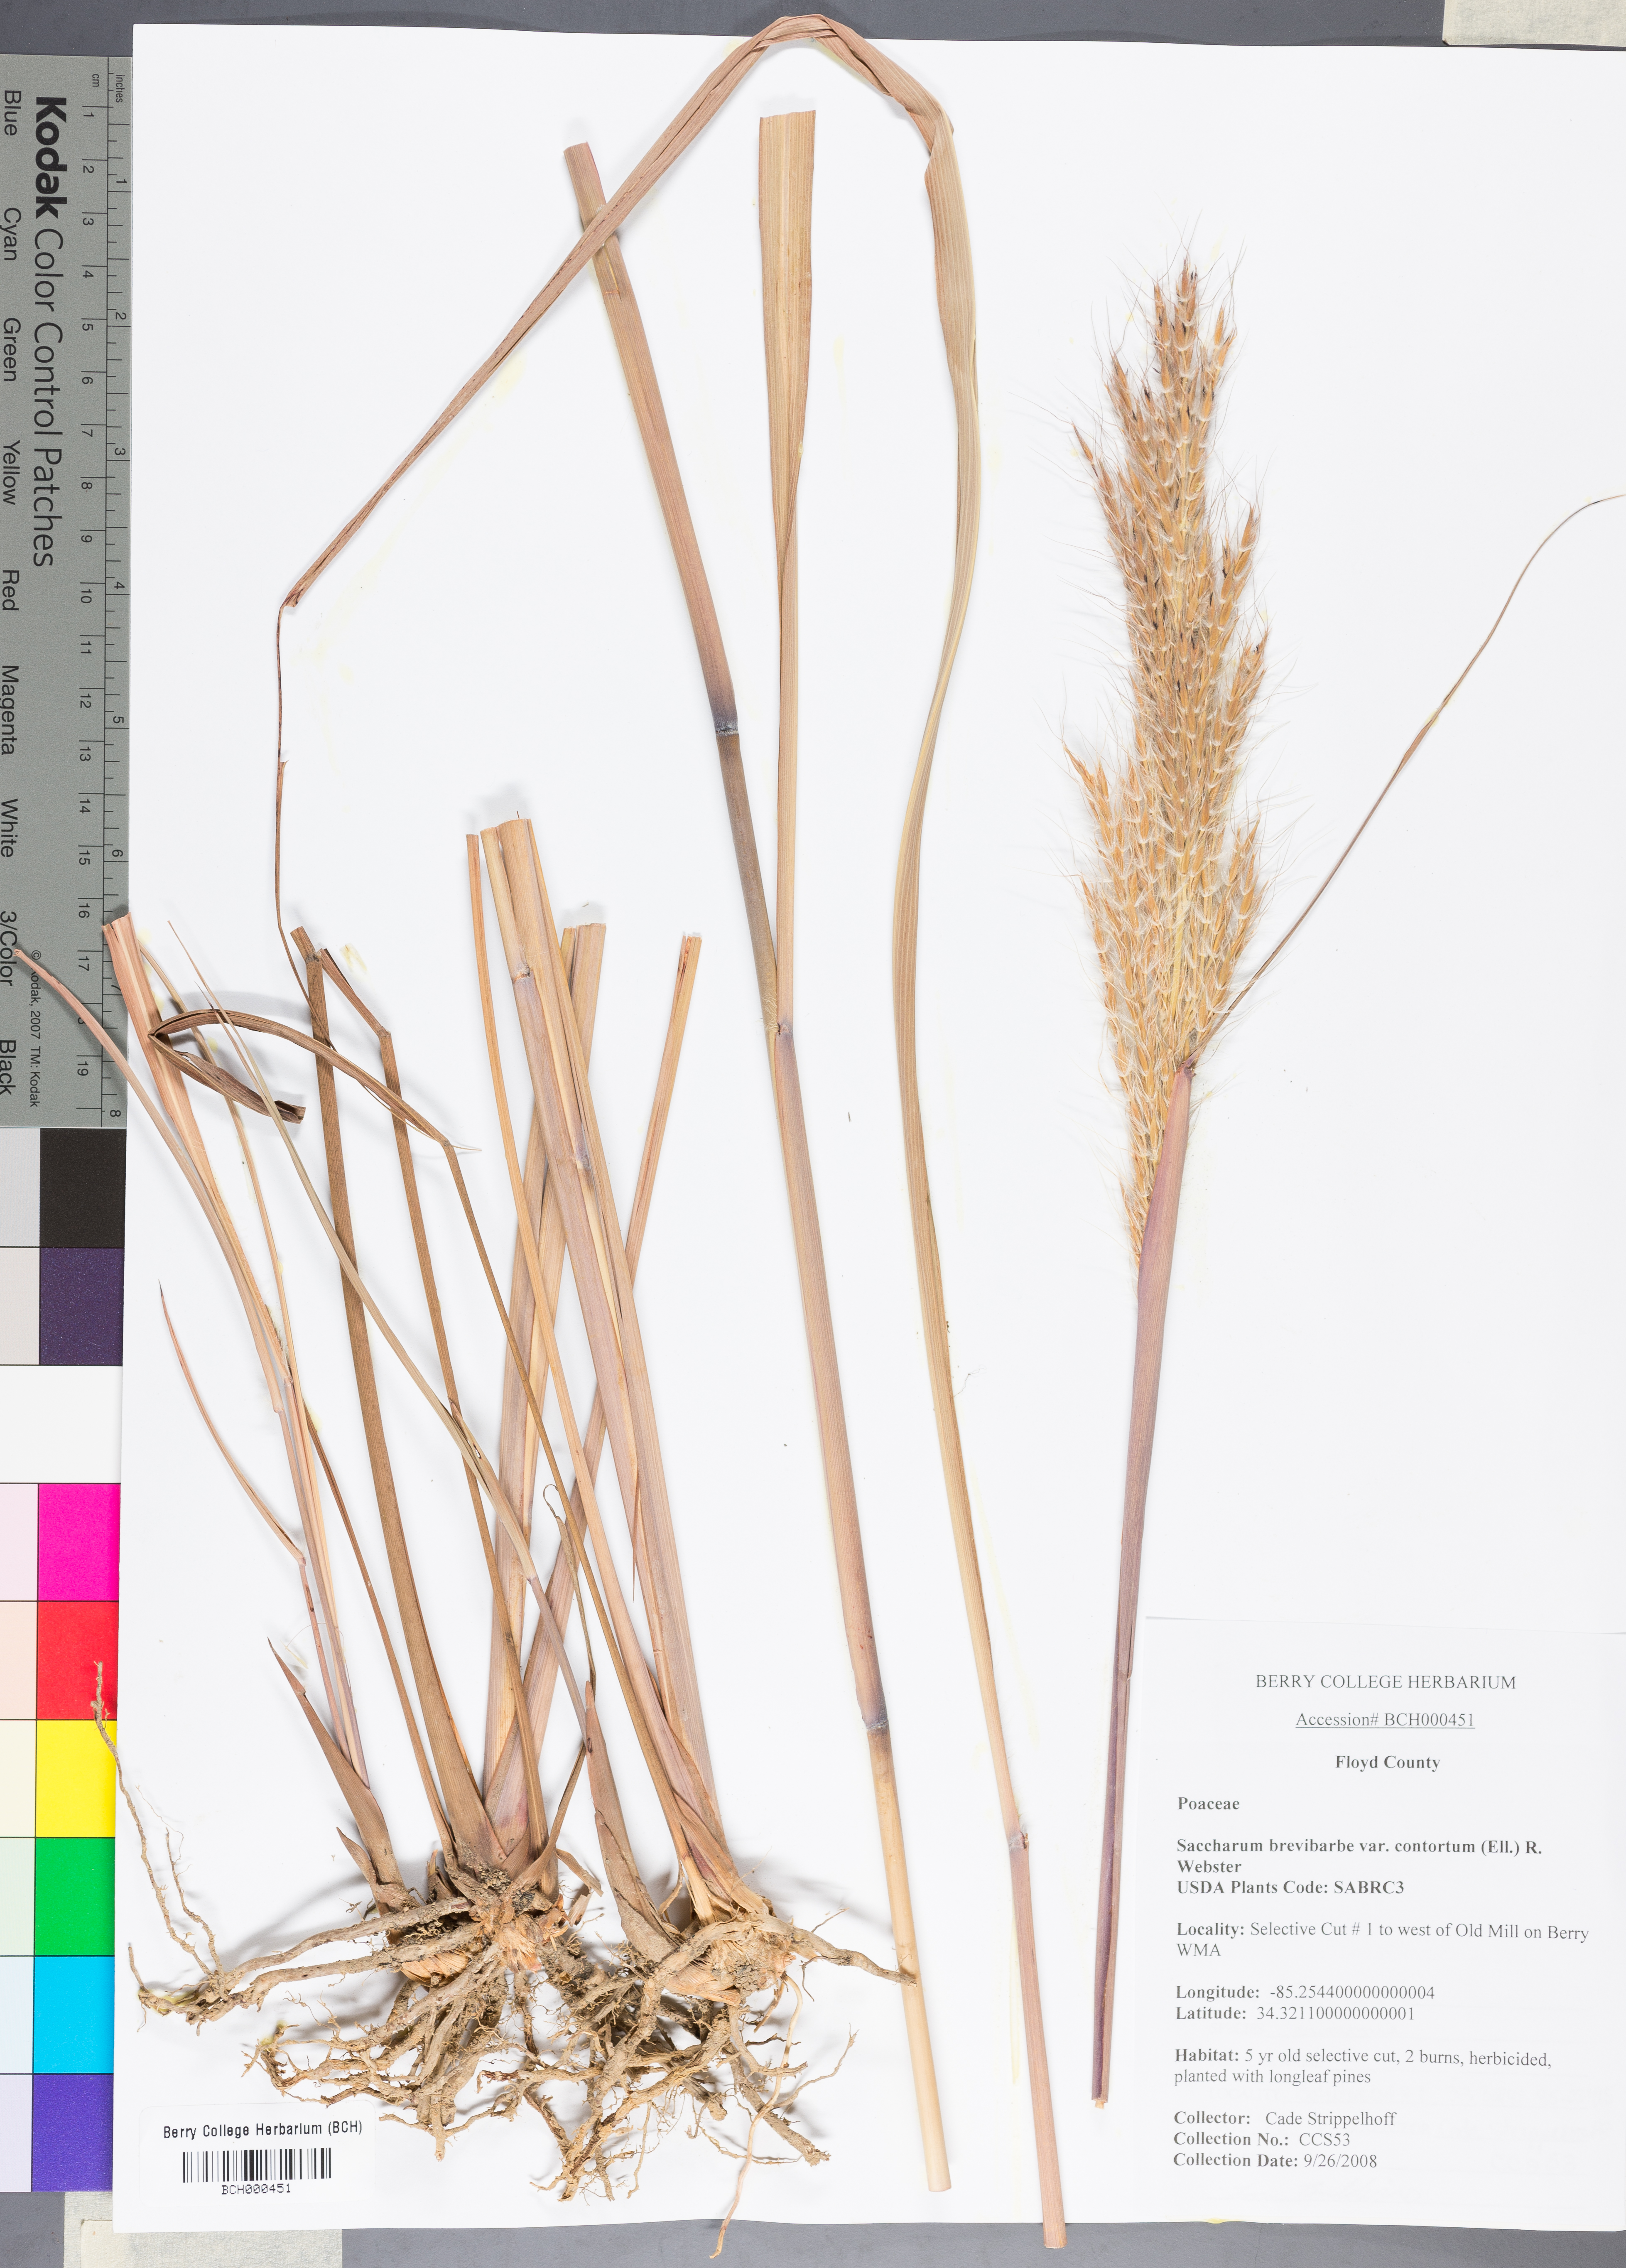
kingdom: Plantae
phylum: Tracheophyta
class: Liliopsida
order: Poales
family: Poaceae
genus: Erianthus
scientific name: Erianthus contortus
